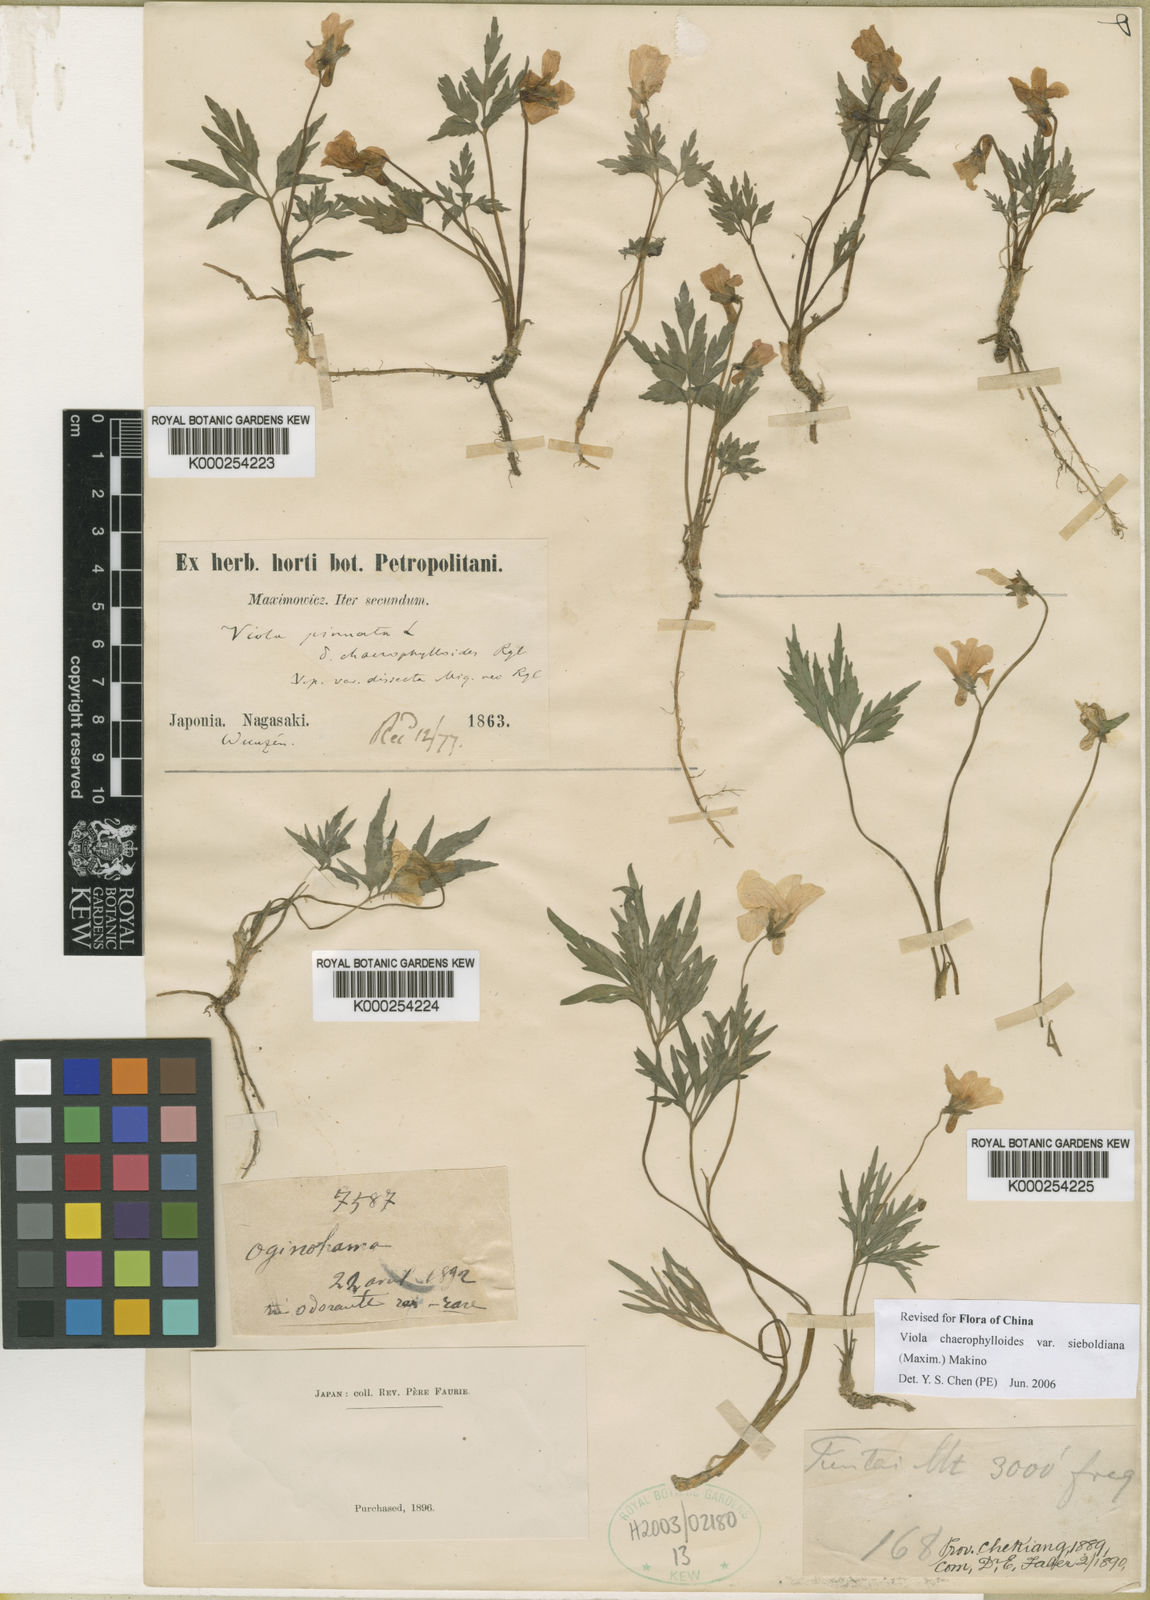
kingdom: Plantae
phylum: Tracheophyta
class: Magnoliopsida
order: Malpighiales
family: Violaceae
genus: Viola
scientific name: Viola
